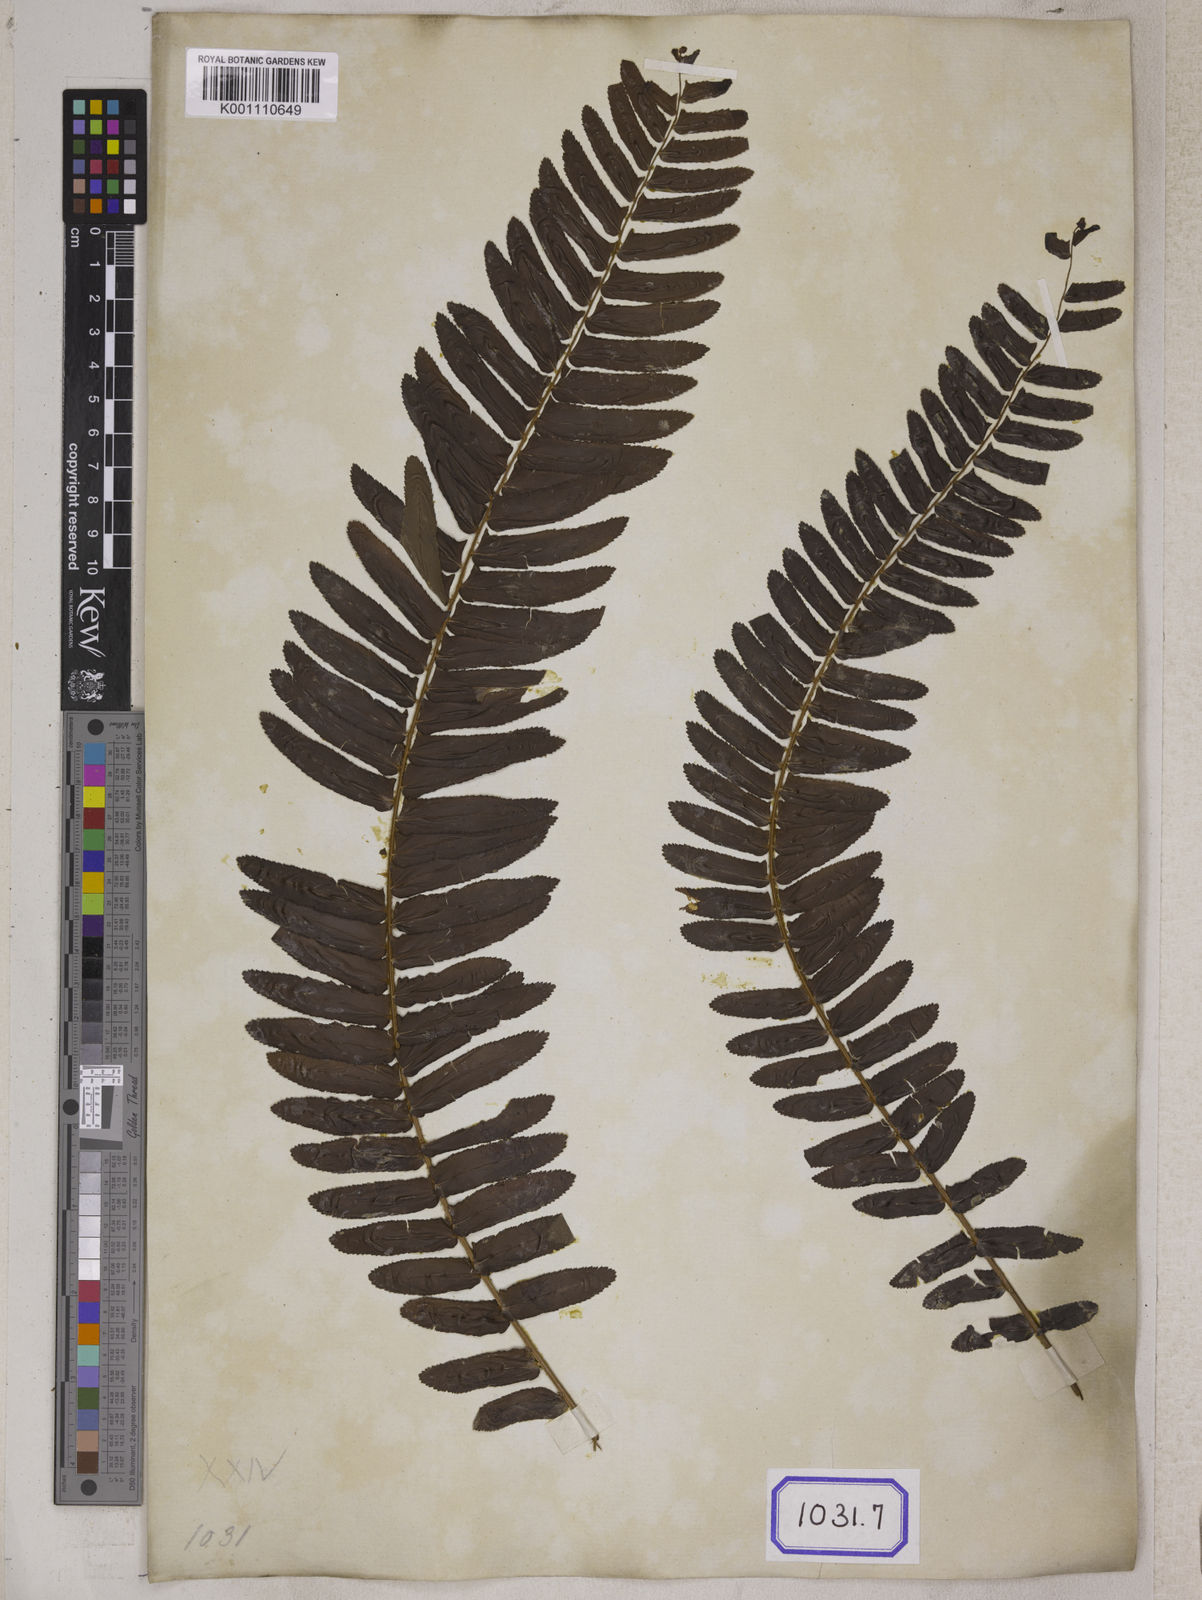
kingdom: Plantae
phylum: Tracheophyta
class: Polypodiopsida
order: Polypodiales
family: Nephrolepidaceae
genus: Nephrolepis
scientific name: Nephrolepis exaltata
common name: Sword fern
